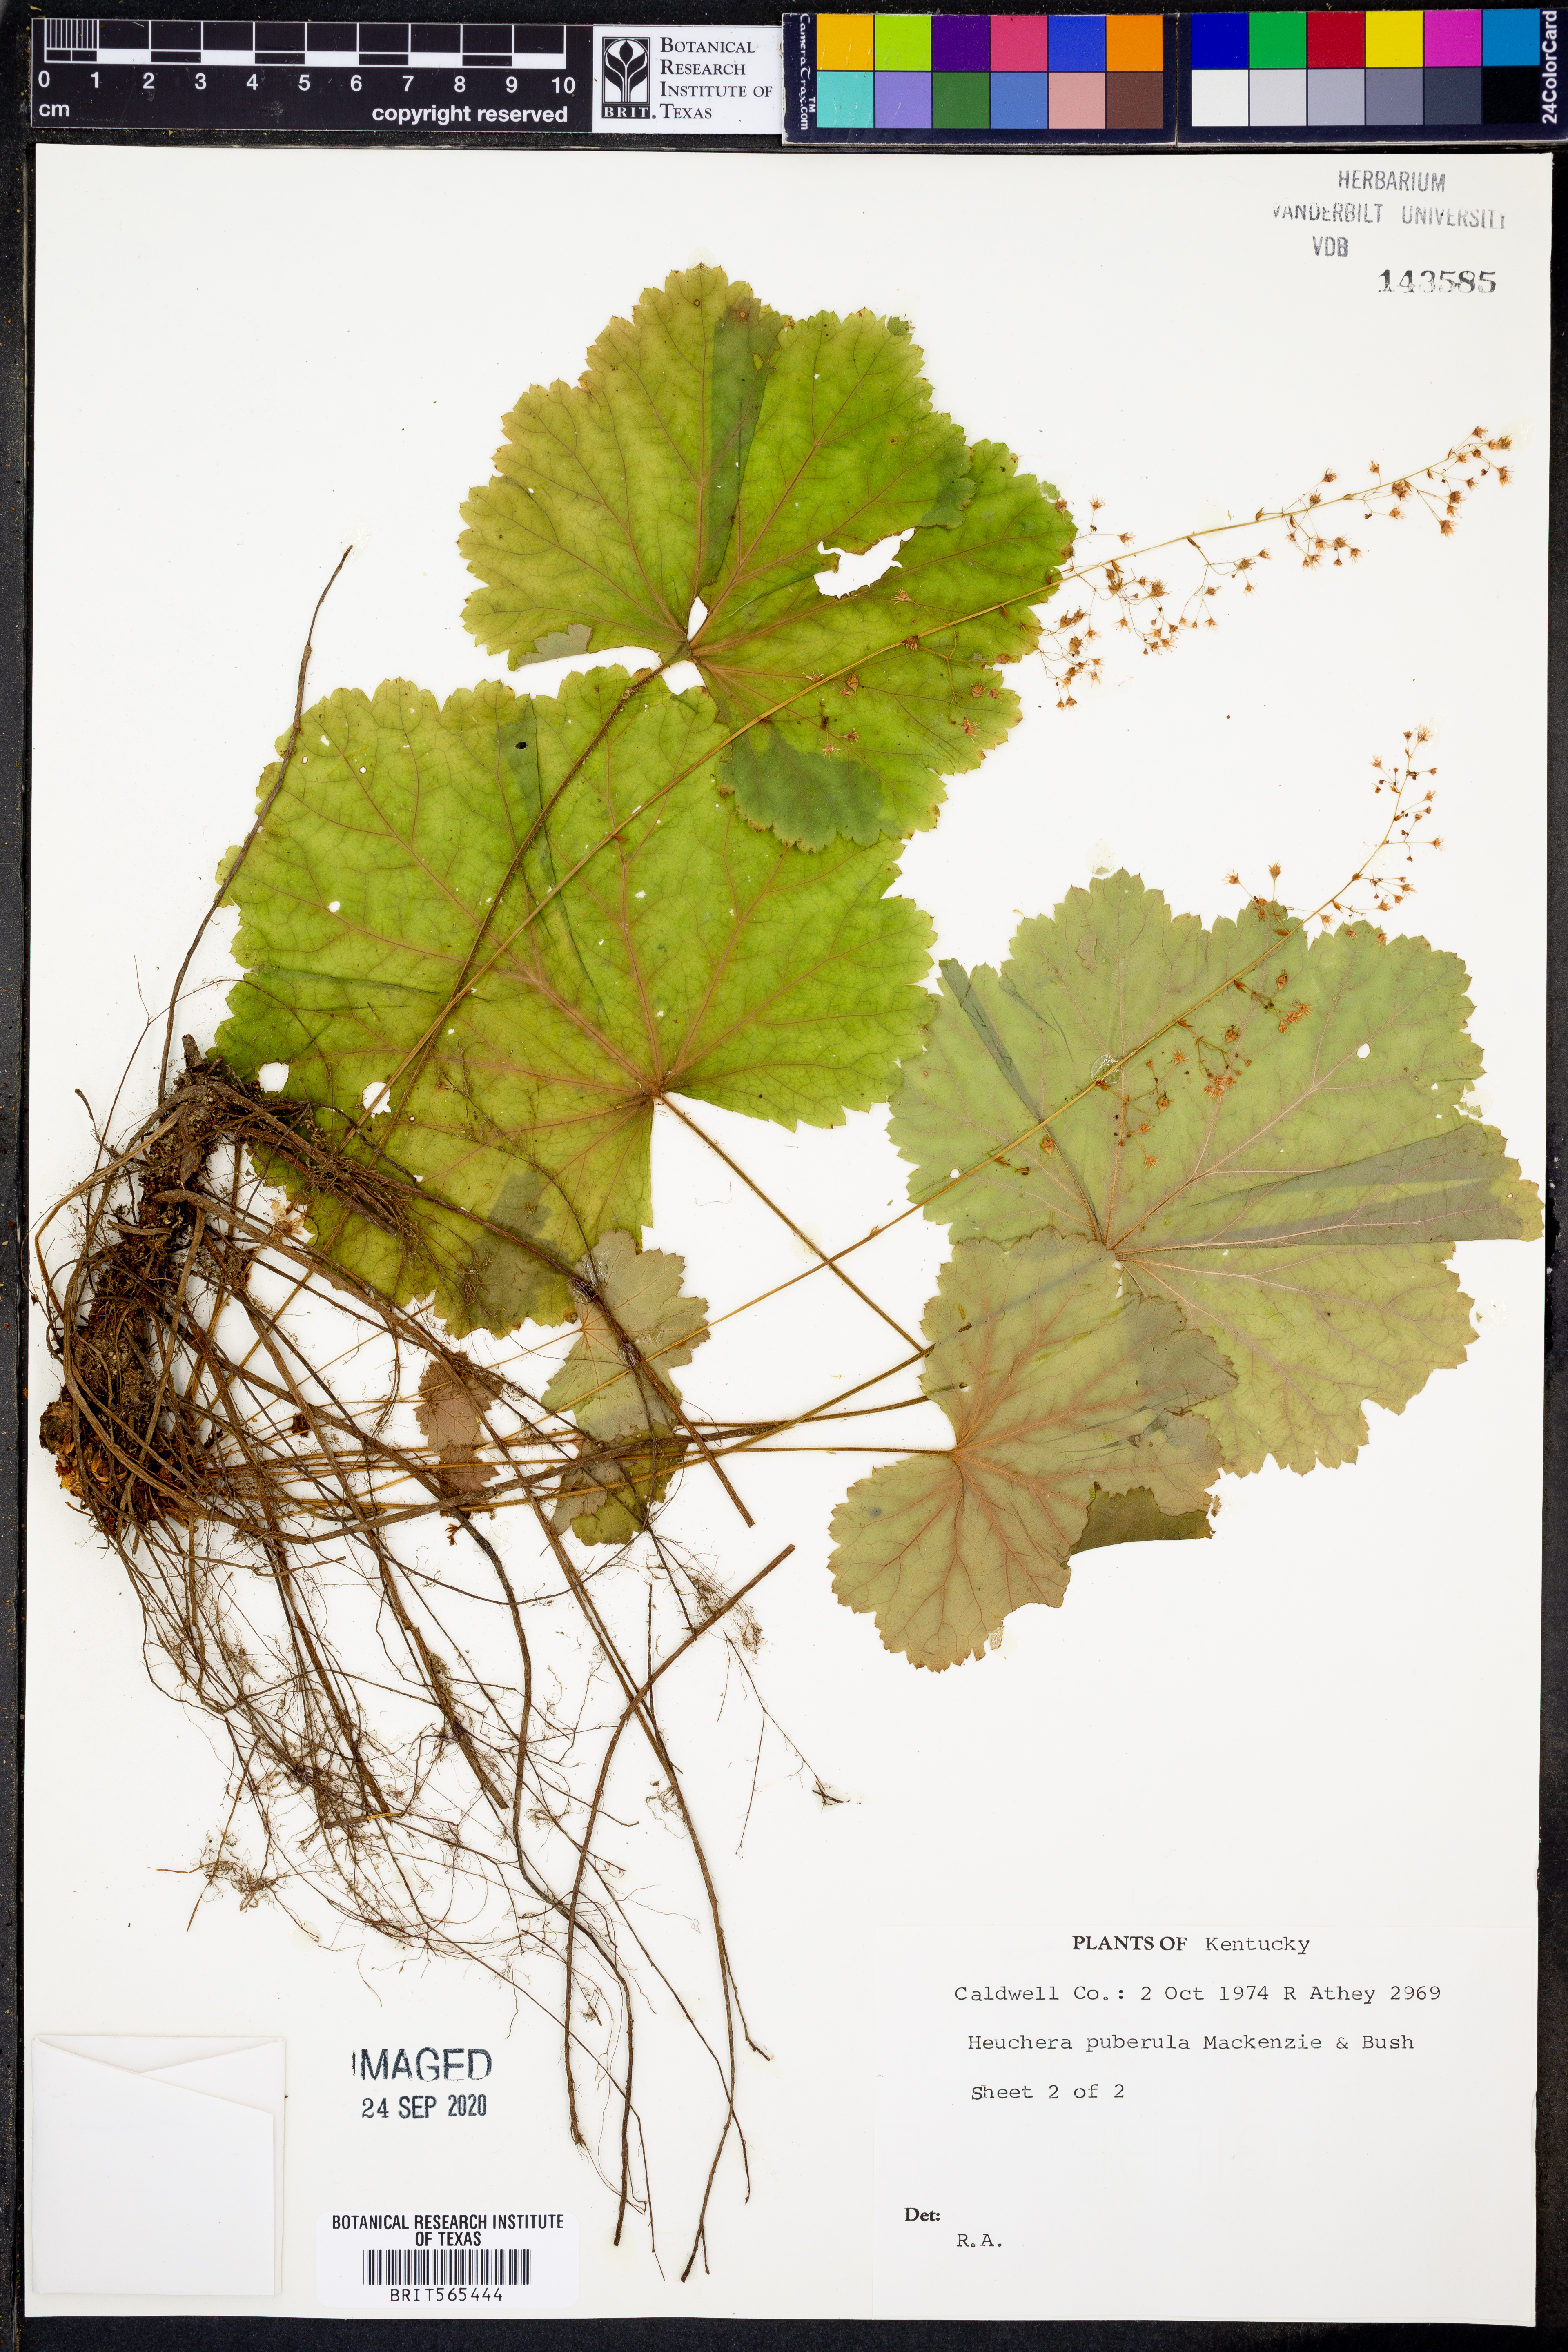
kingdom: Plantae
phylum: Tracheophyta
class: Magnoliopsida
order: Saxifragales
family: Saxifragaceae
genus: Heuchera
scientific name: Heuchera puberula
